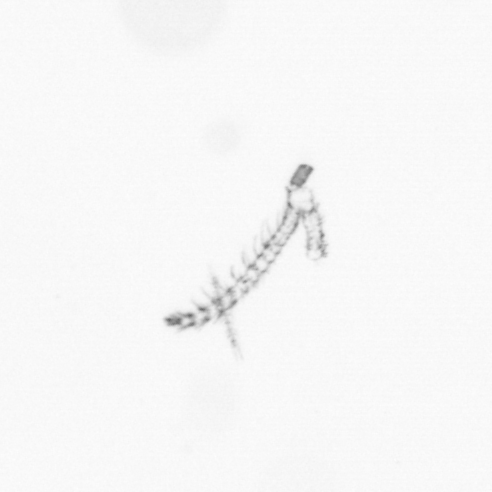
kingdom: Chromista
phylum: Ochrophyta
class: Bacillariophyceae
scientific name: Bacillariophyceae
